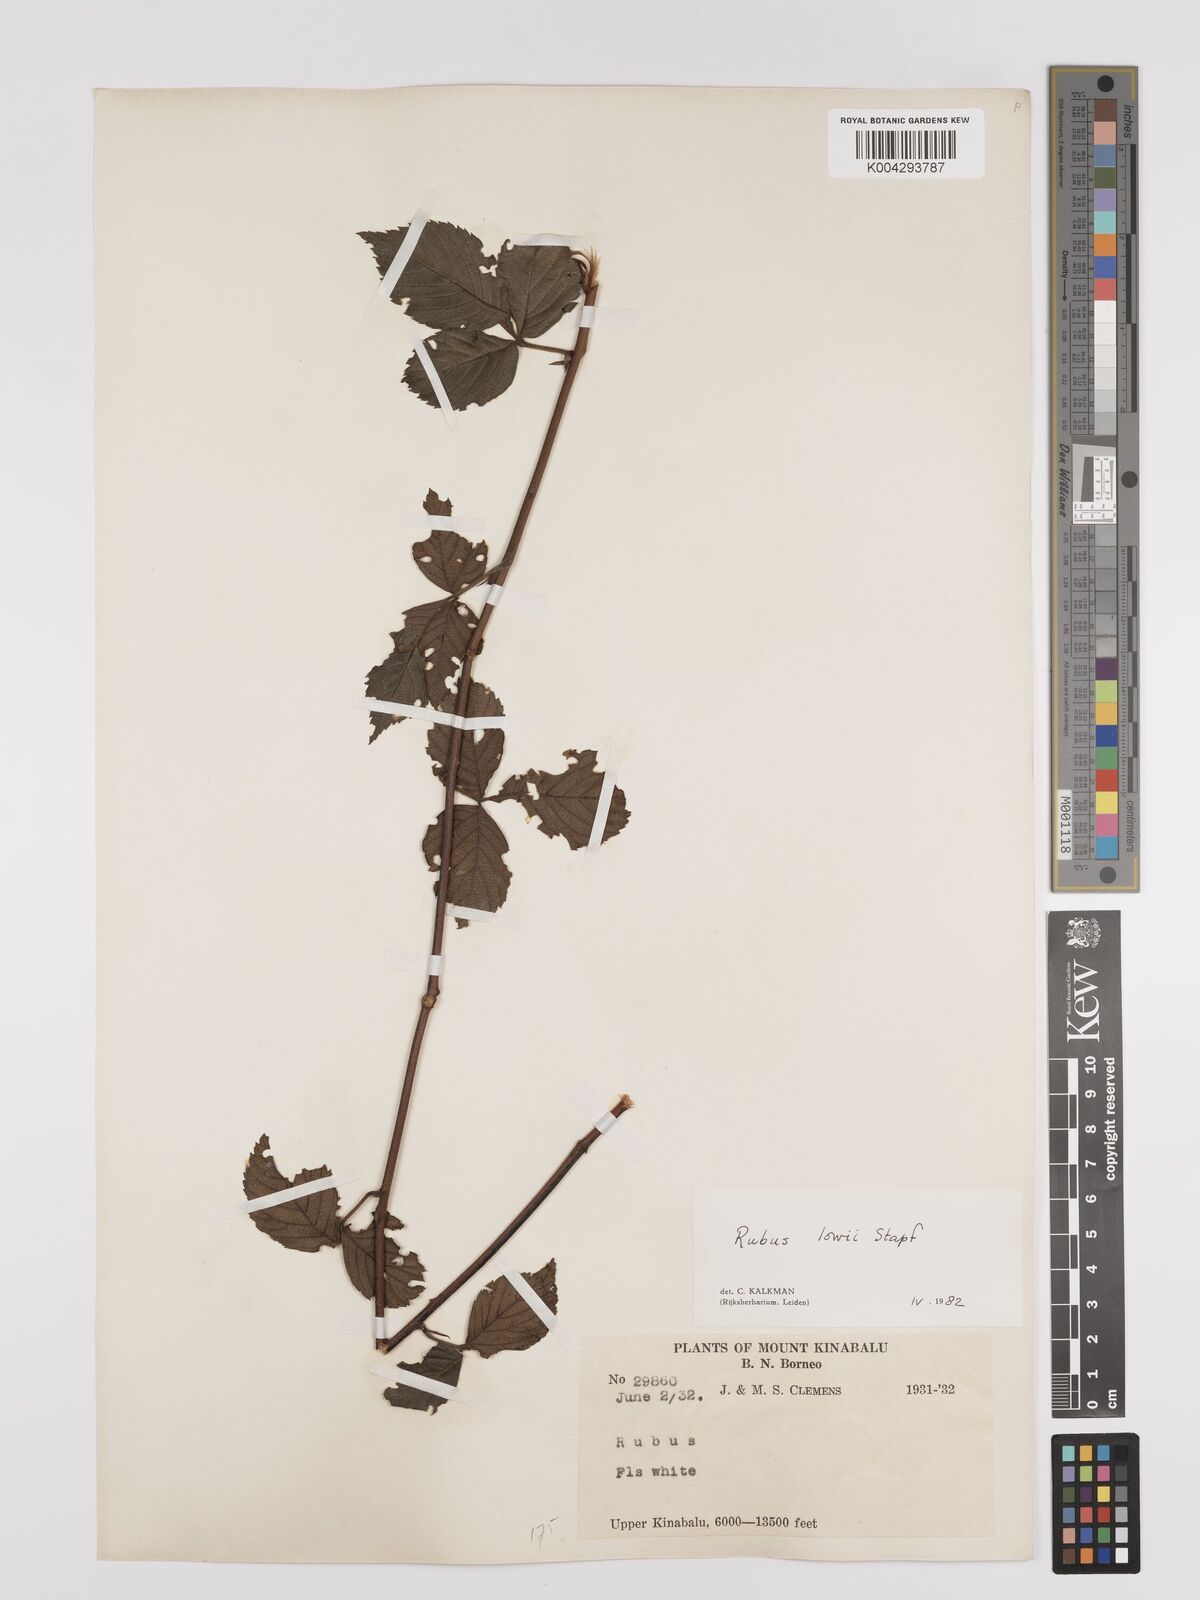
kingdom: Plantae
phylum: Tracheophyta
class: Magnoliopsida
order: Rosales
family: Rosaceae
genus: Rubus
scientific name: Rubus lowii
